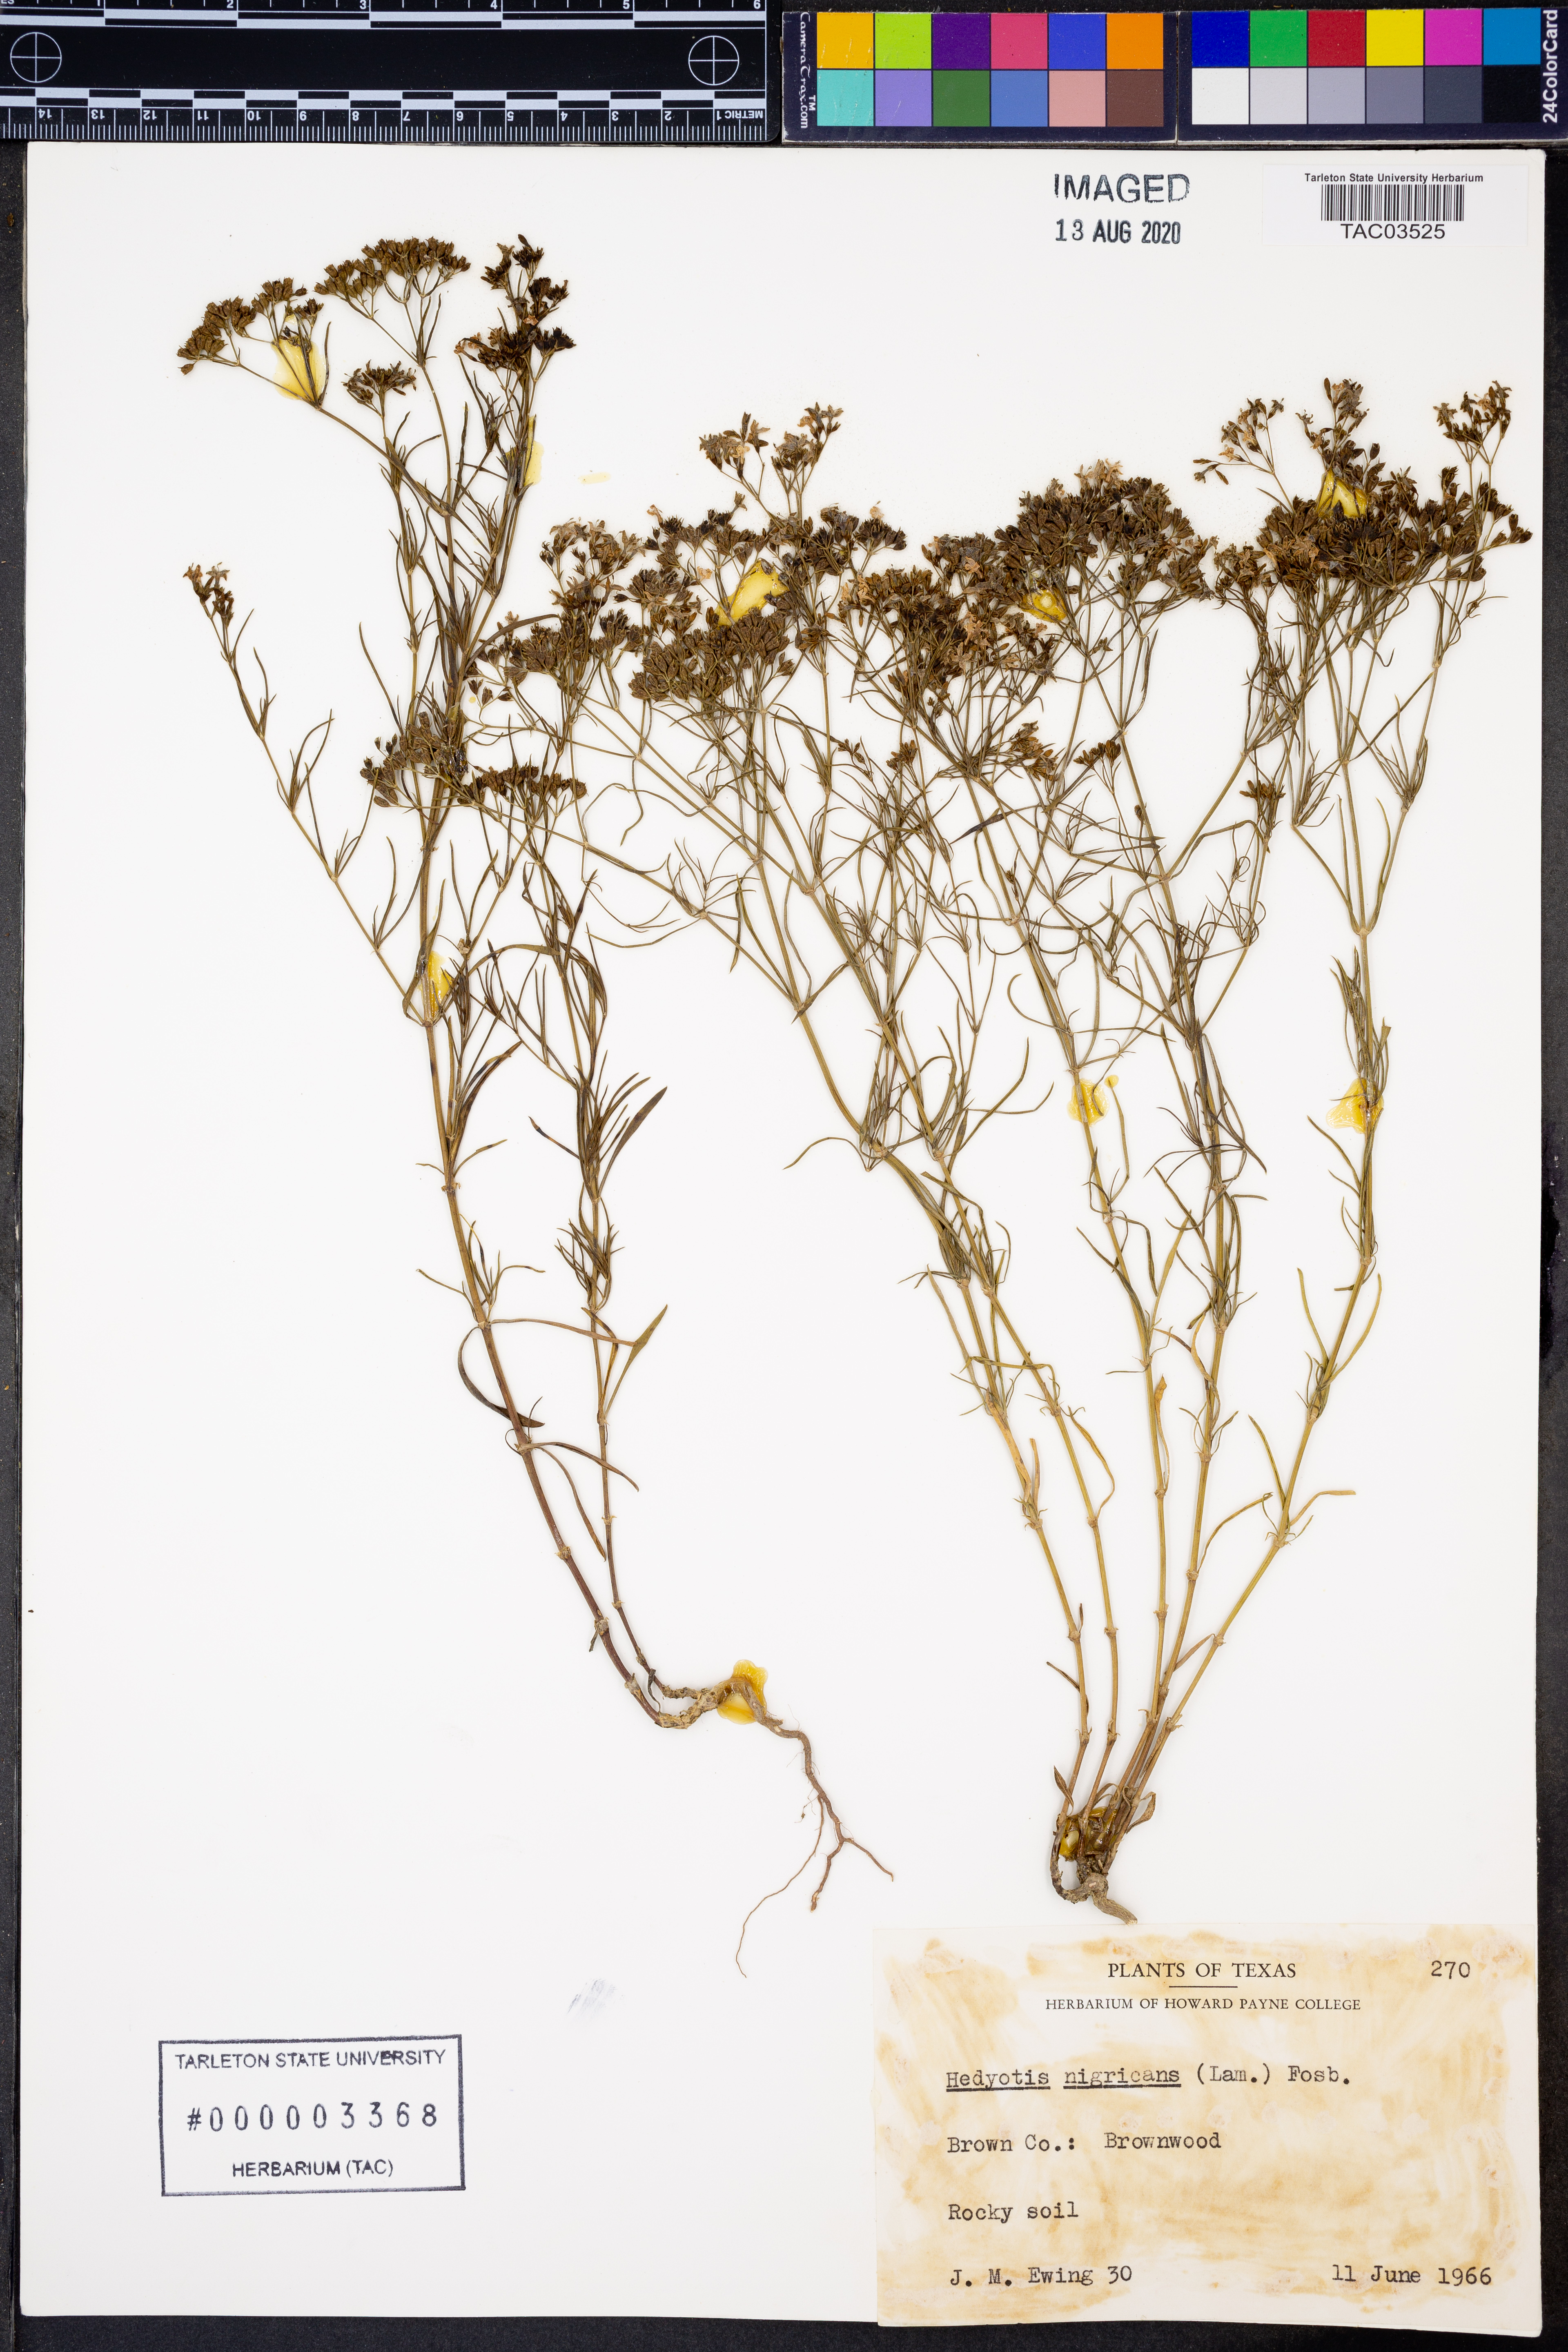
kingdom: Plantae
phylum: Tracheophyta
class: Magnoliopsida
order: Gentianales
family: Rubiaceae
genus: Stenaria
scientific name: Stenaria nigricans
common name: Diamondflowers
